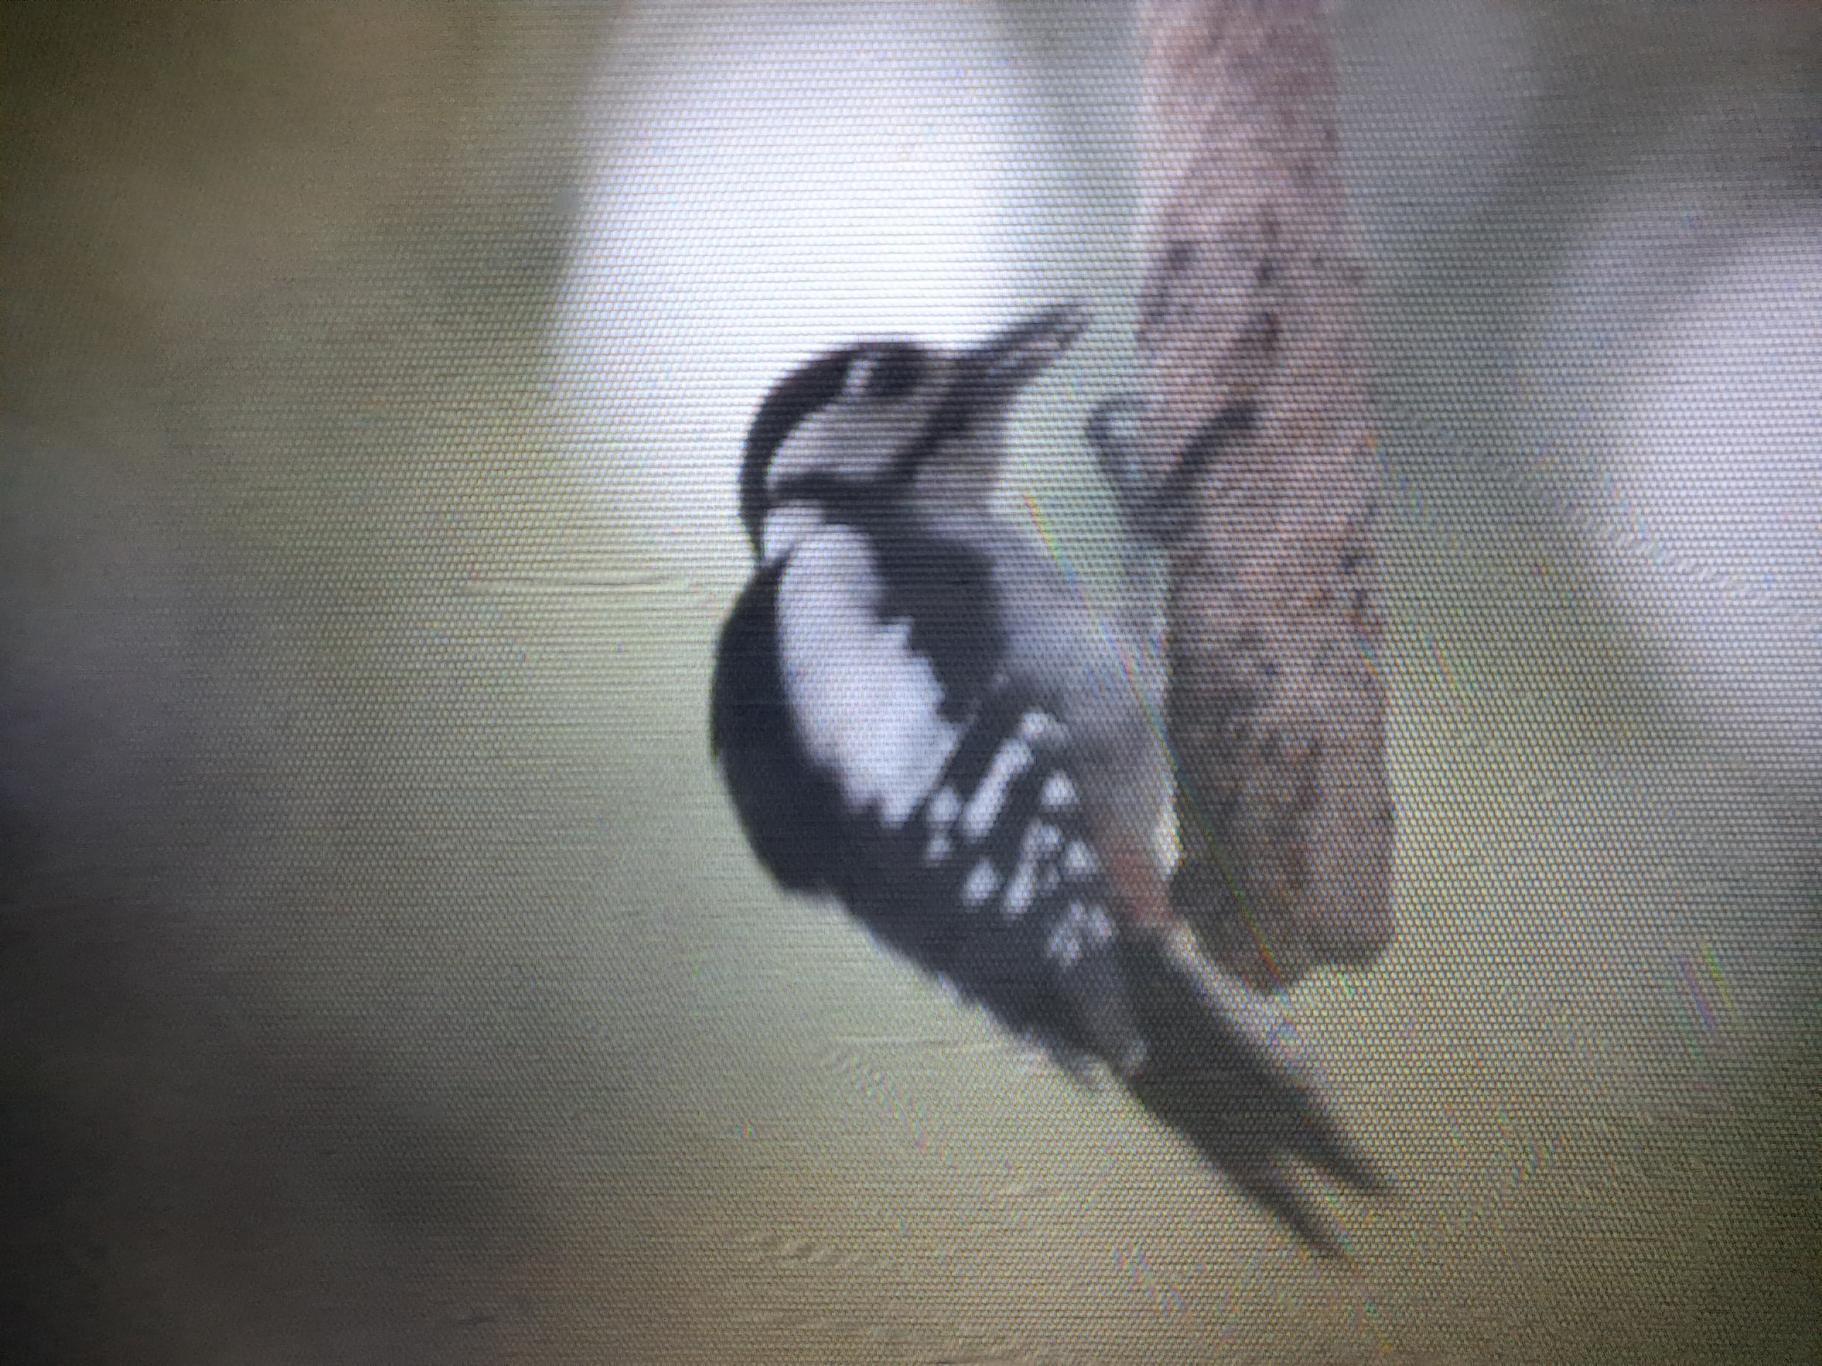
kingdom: Animalia
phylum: Chordata
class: Aves
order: Piciformes
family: Picidae
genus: Dendrocopos
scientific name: Dendrocopos major
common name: Stor flagspætte
